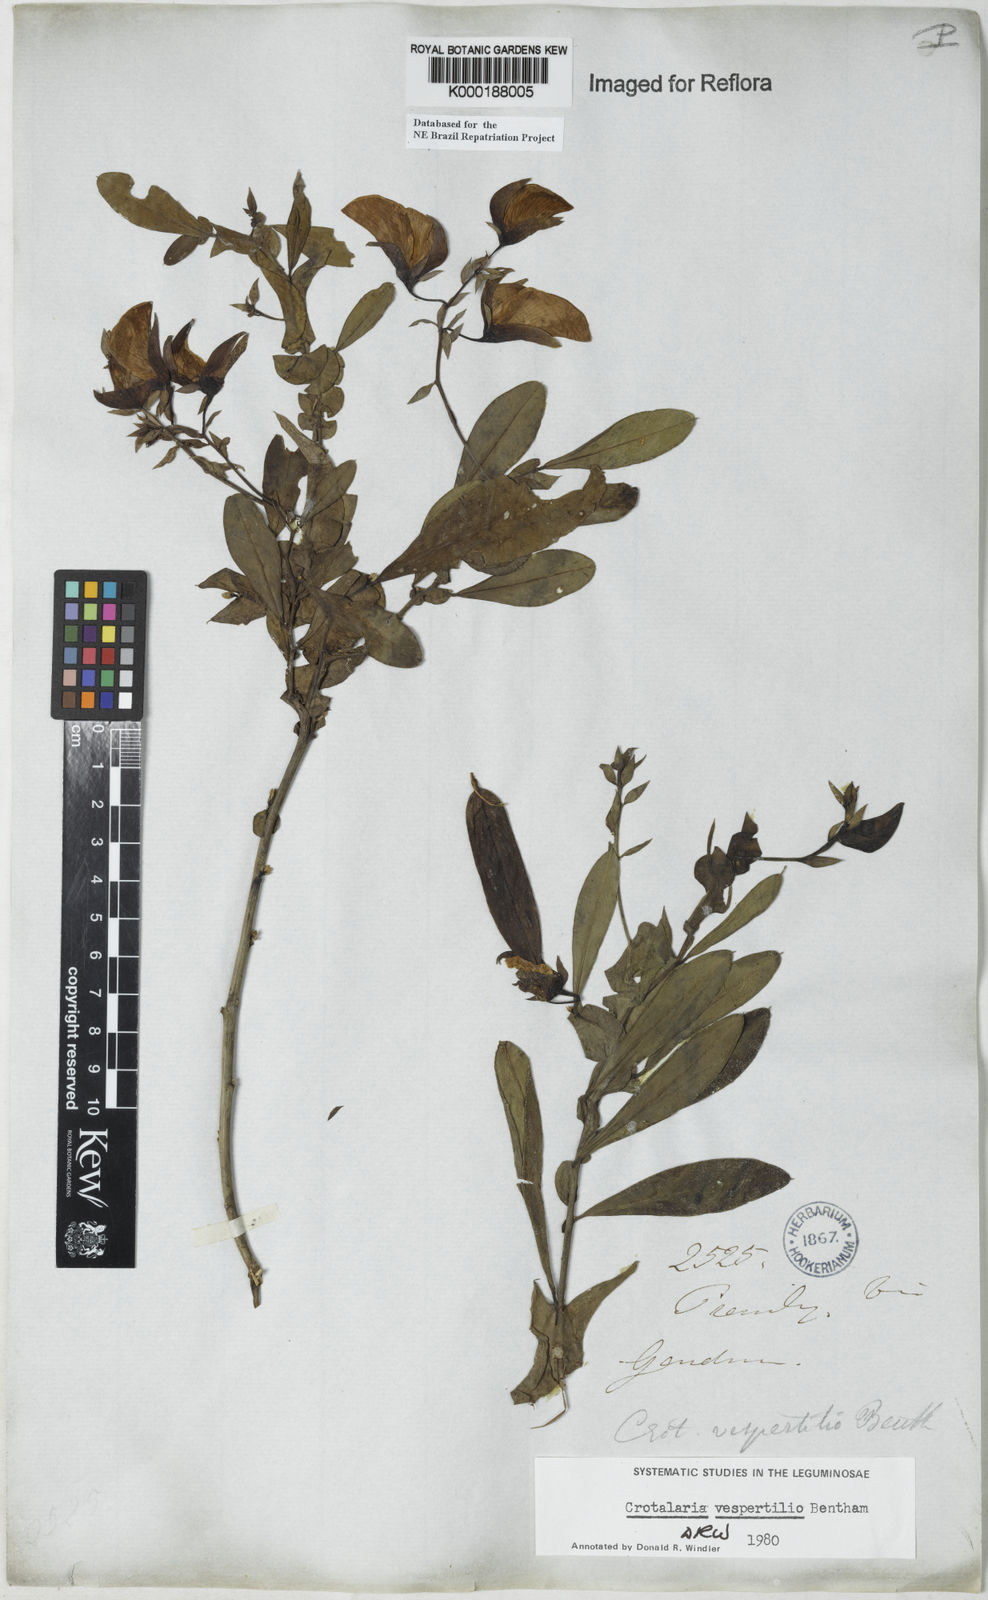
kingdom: Plantae
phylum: Tracheophyta
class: Magnoliopsida
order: Fabales
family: Fabaceae
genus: Crotalaria
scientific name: Crotalaria paulina
